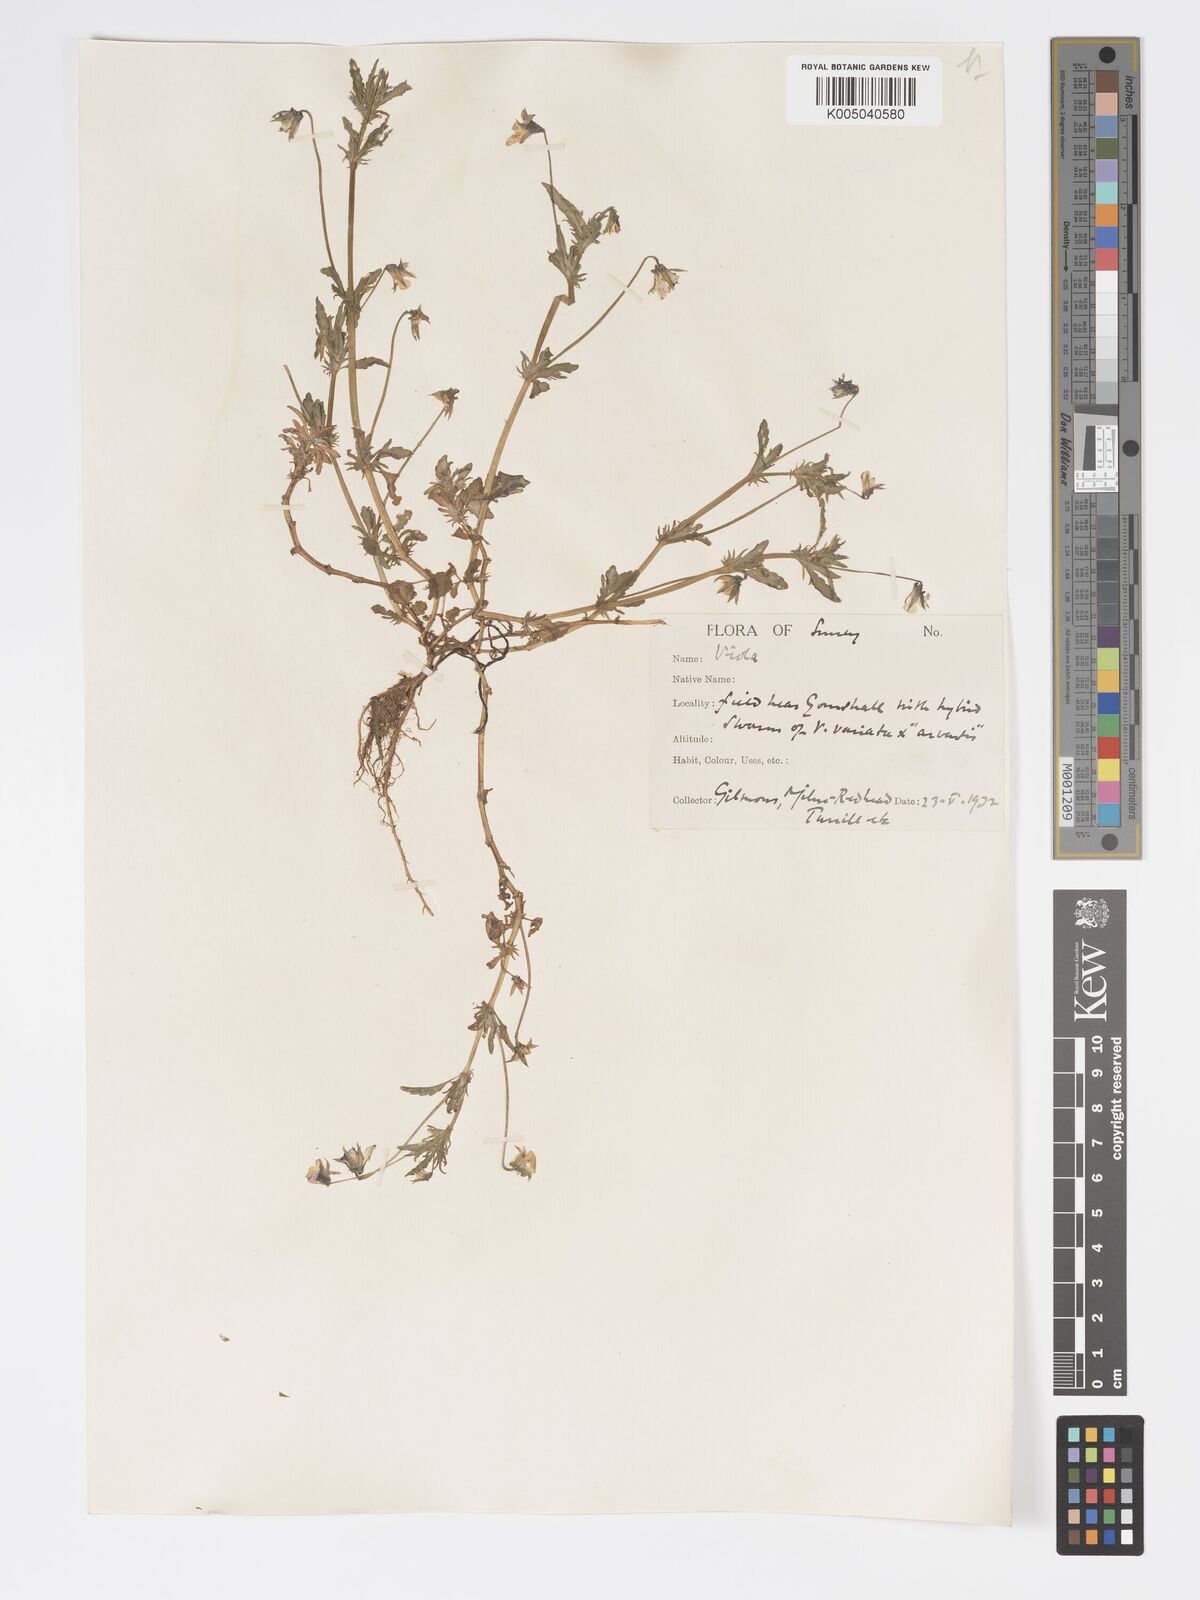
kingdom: Plantae
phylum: Tracheophyta
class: Magnoliopsida
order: Malpighiales
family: Violaceae
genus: Viola
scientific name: Viola
